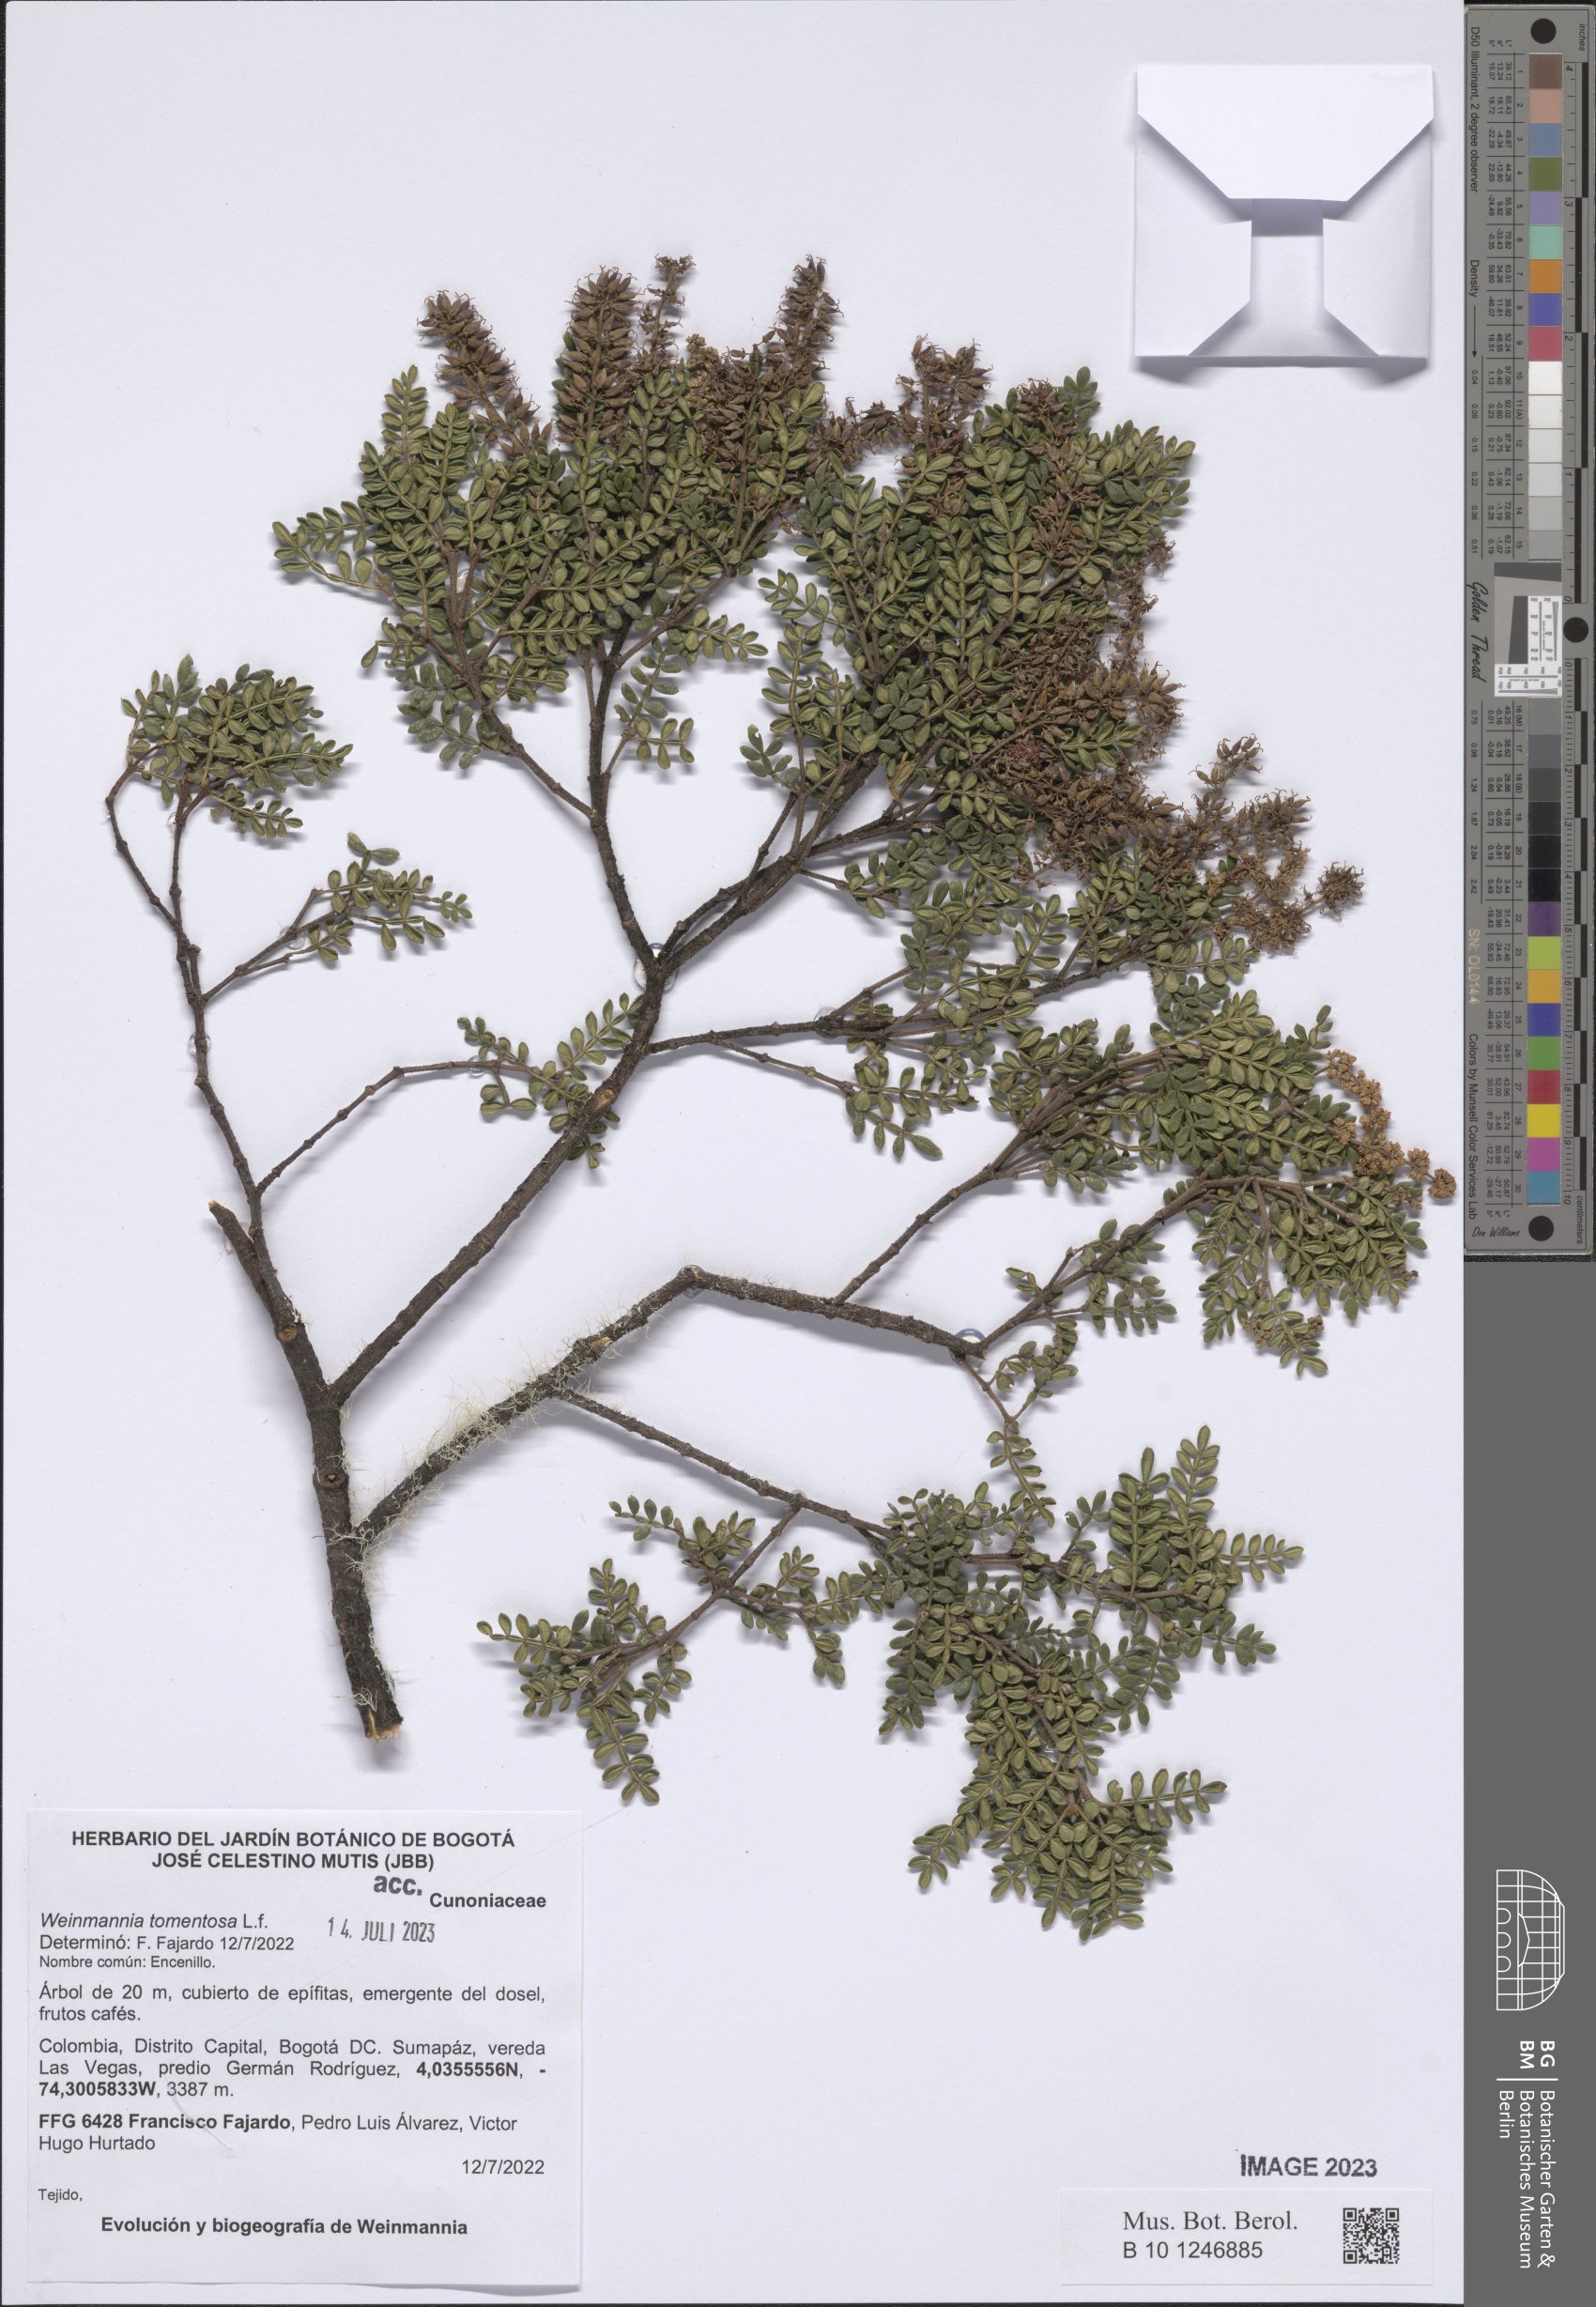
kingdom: Plantae
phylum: Tracheophyta
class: Magnoliopsida
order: Oxalidales
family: Cunoniaceae
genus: Weinmannia
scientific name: Weinmannia tomentosa
